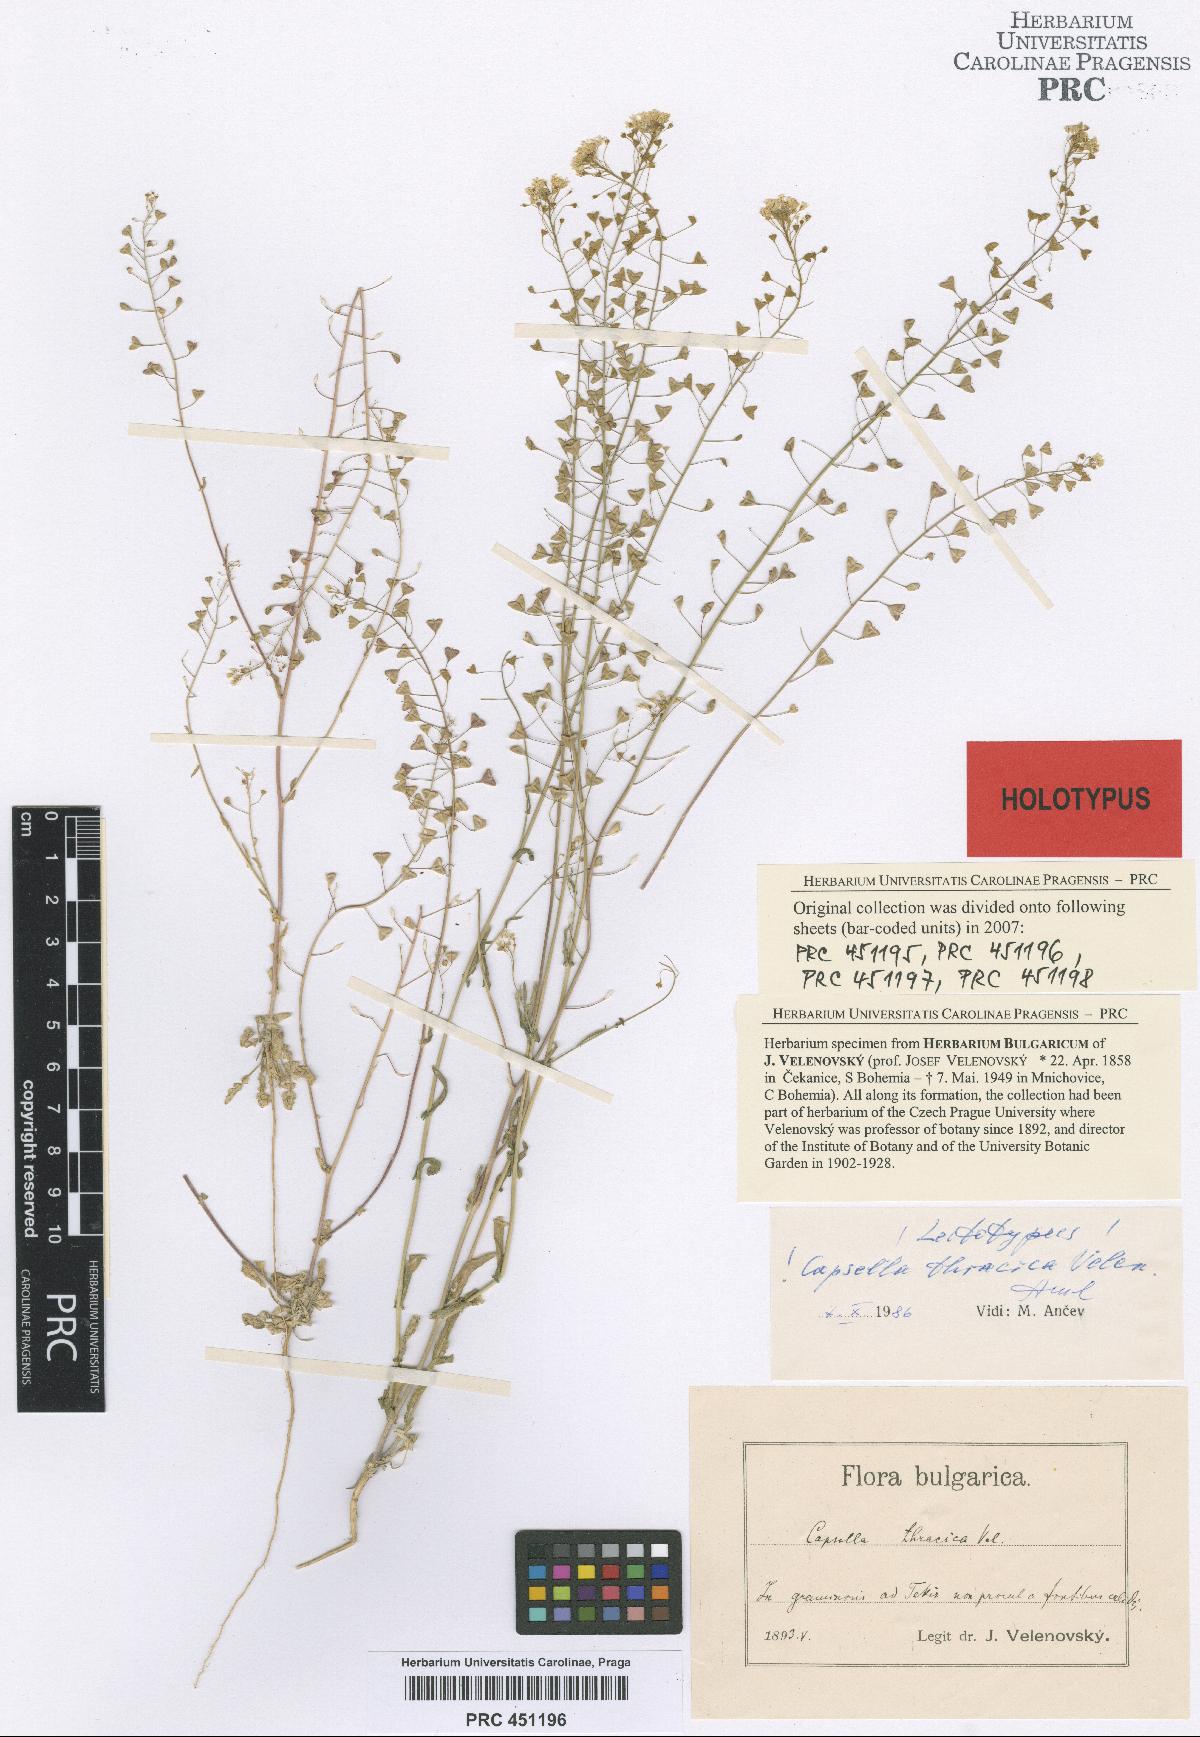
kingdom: Plantae
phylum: Tracheophyta
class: Magnoliopsida
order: Brassicales
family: Brassicaceae
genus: Capsella
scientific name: Capsella thracica
